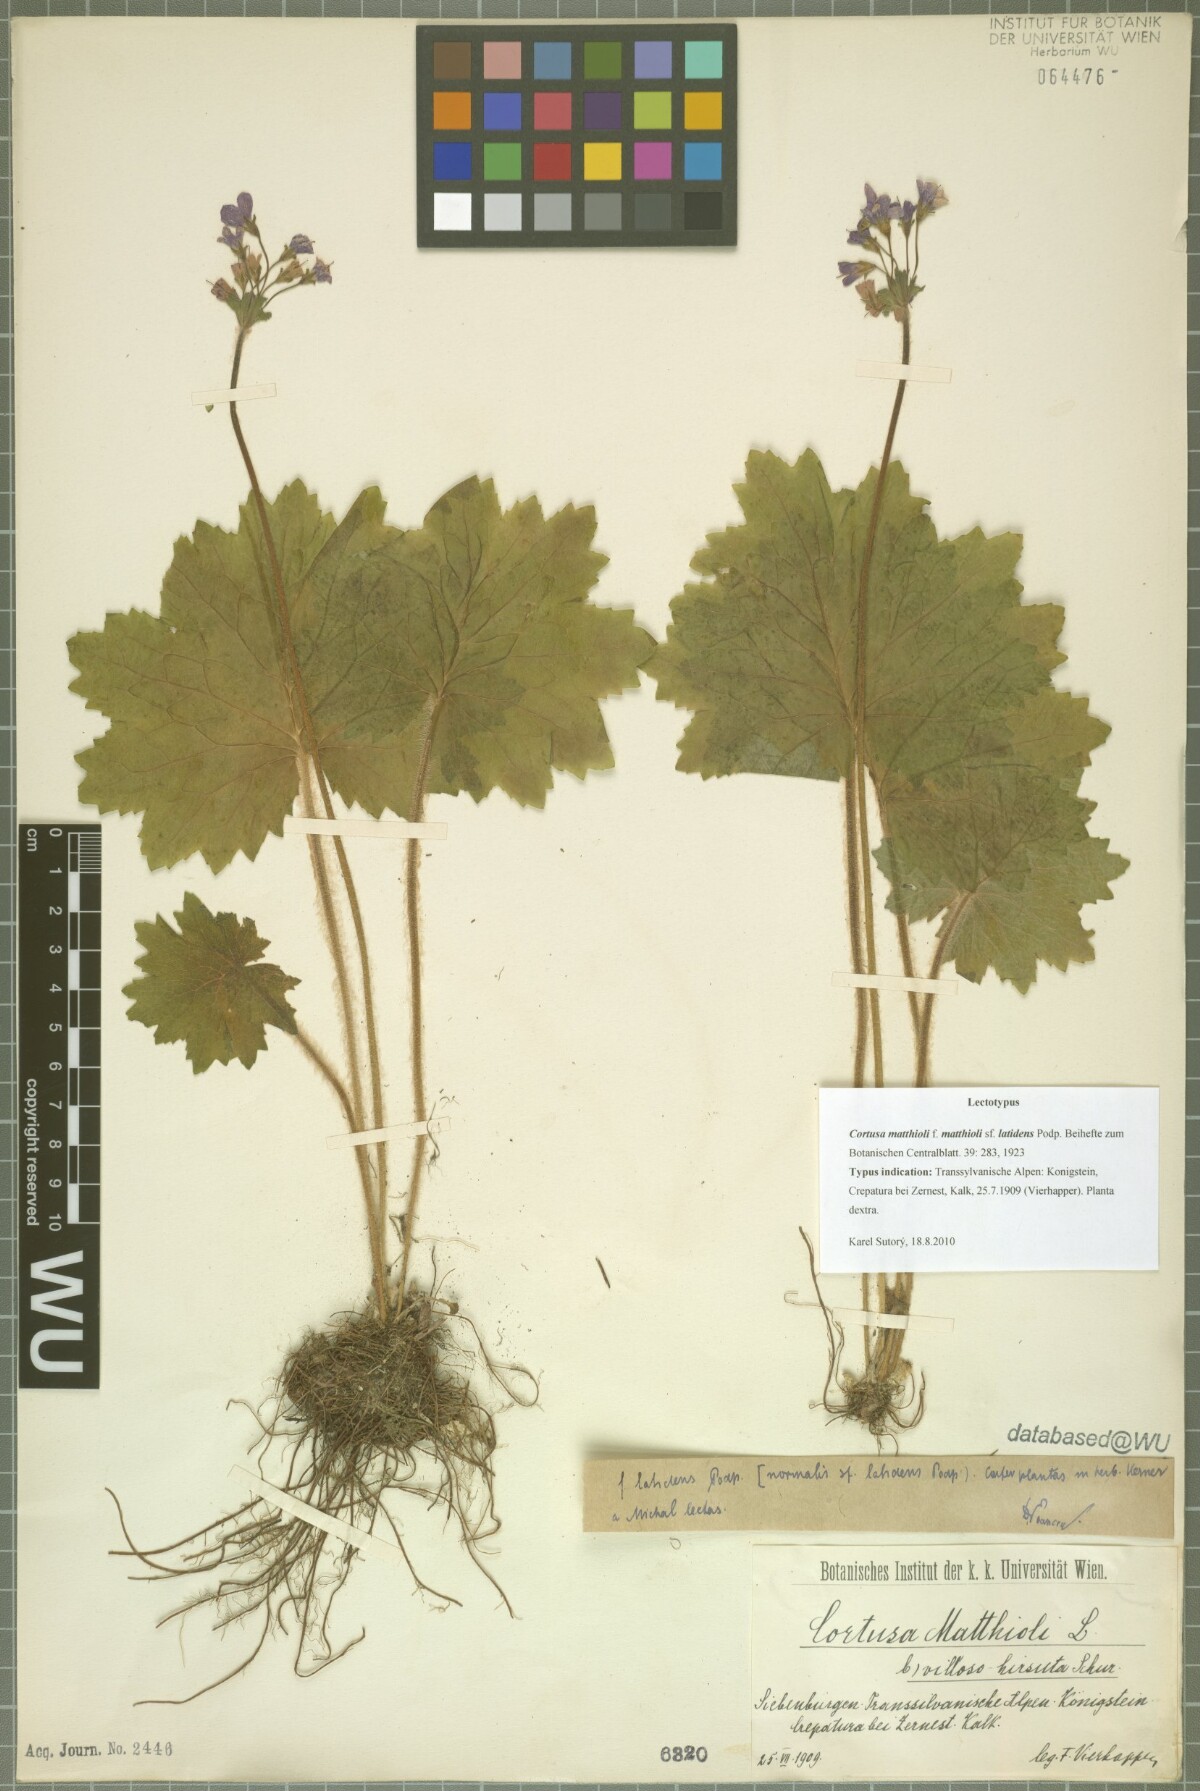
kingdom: Plantae
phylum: Tracheophyta
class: Magnoliopsida
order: Ericales
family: Primulaceae
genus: Primula
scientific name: Primula matthioli
